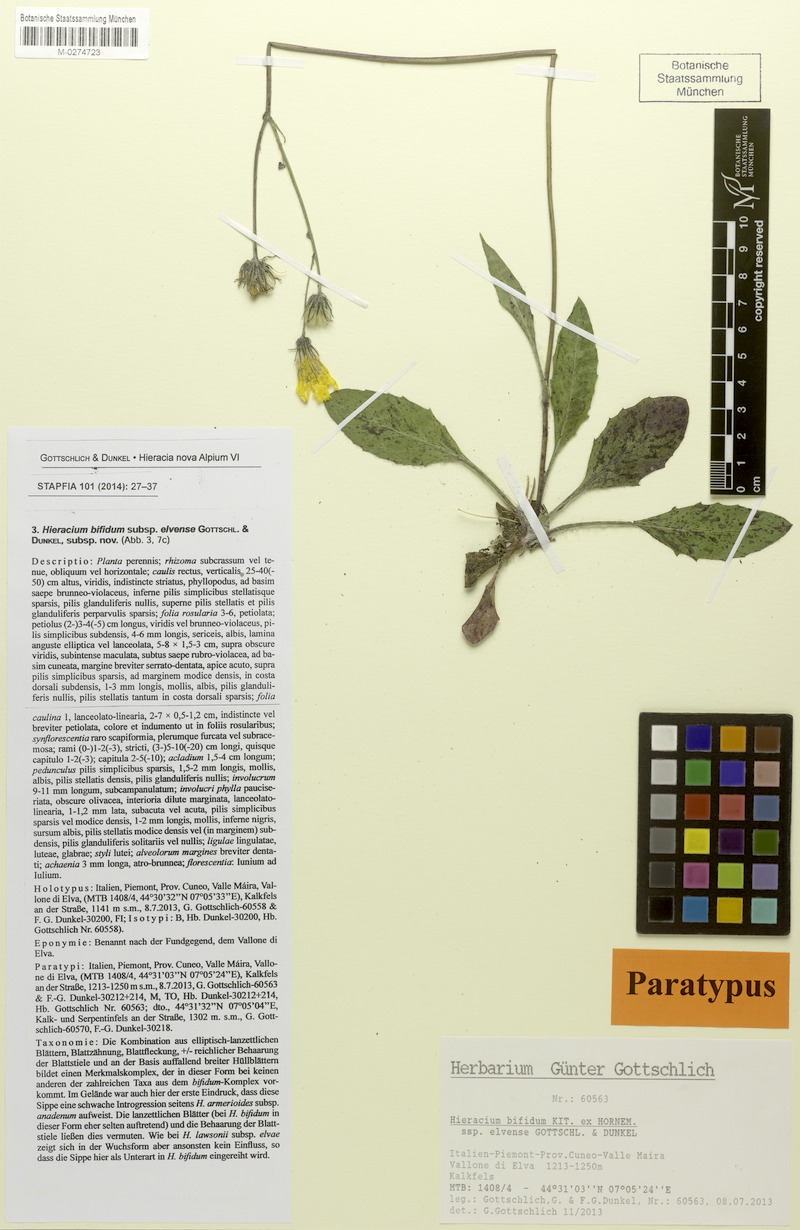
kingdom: Plantae
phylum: Tracheophyta
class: Magnoliopsida
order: Asterales
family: Asteraceae
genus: Hieracium
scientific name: Hieracium bifidum
